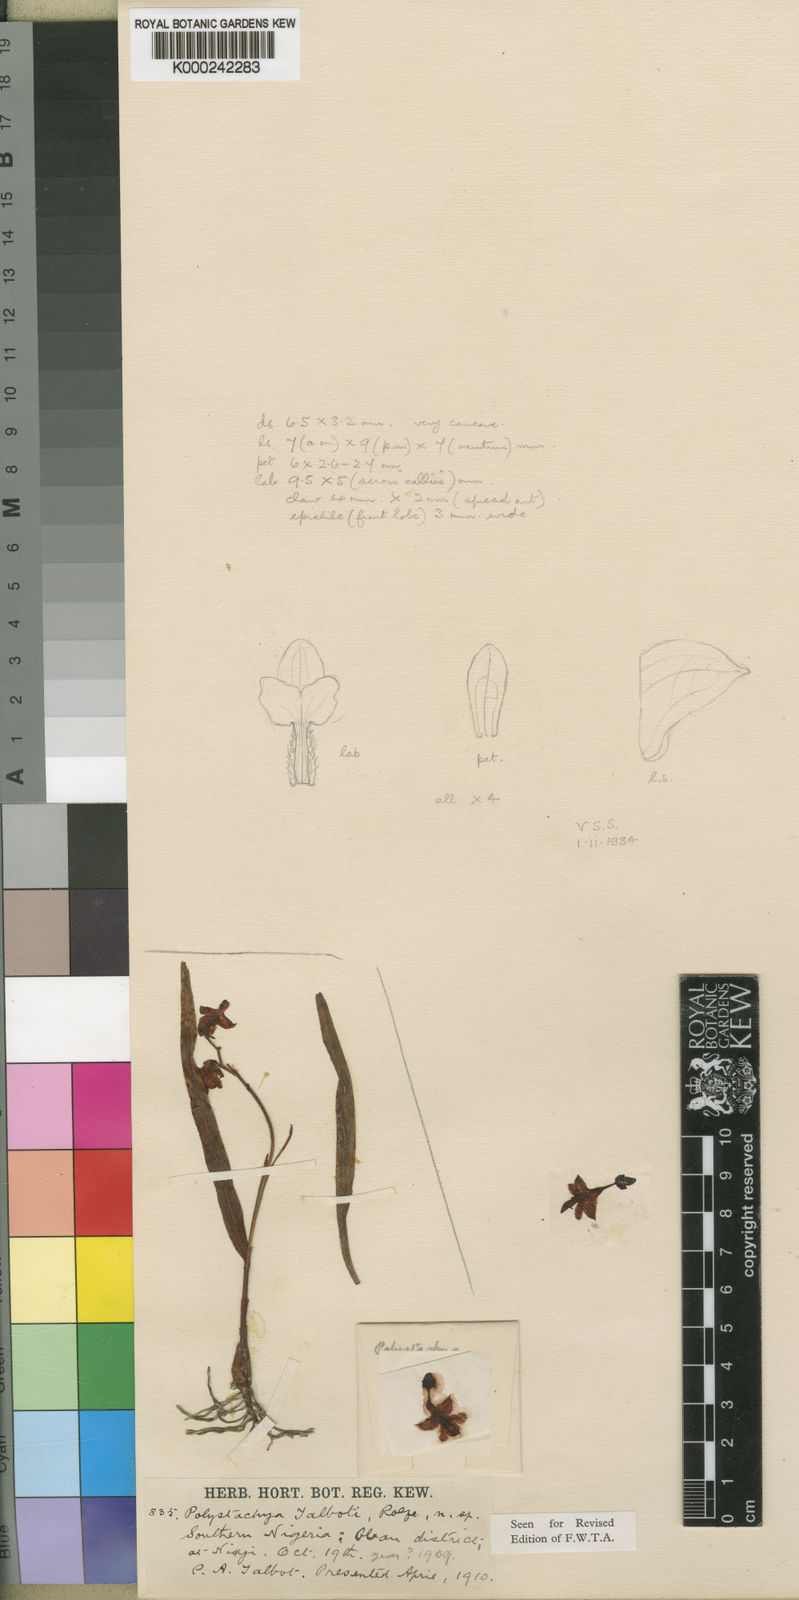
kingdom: Plantae
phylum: Tracheophyta
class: Liliopsida
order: Asparagales
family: Orchidaceae
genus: Polystachya
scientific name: Polystachya alpina
